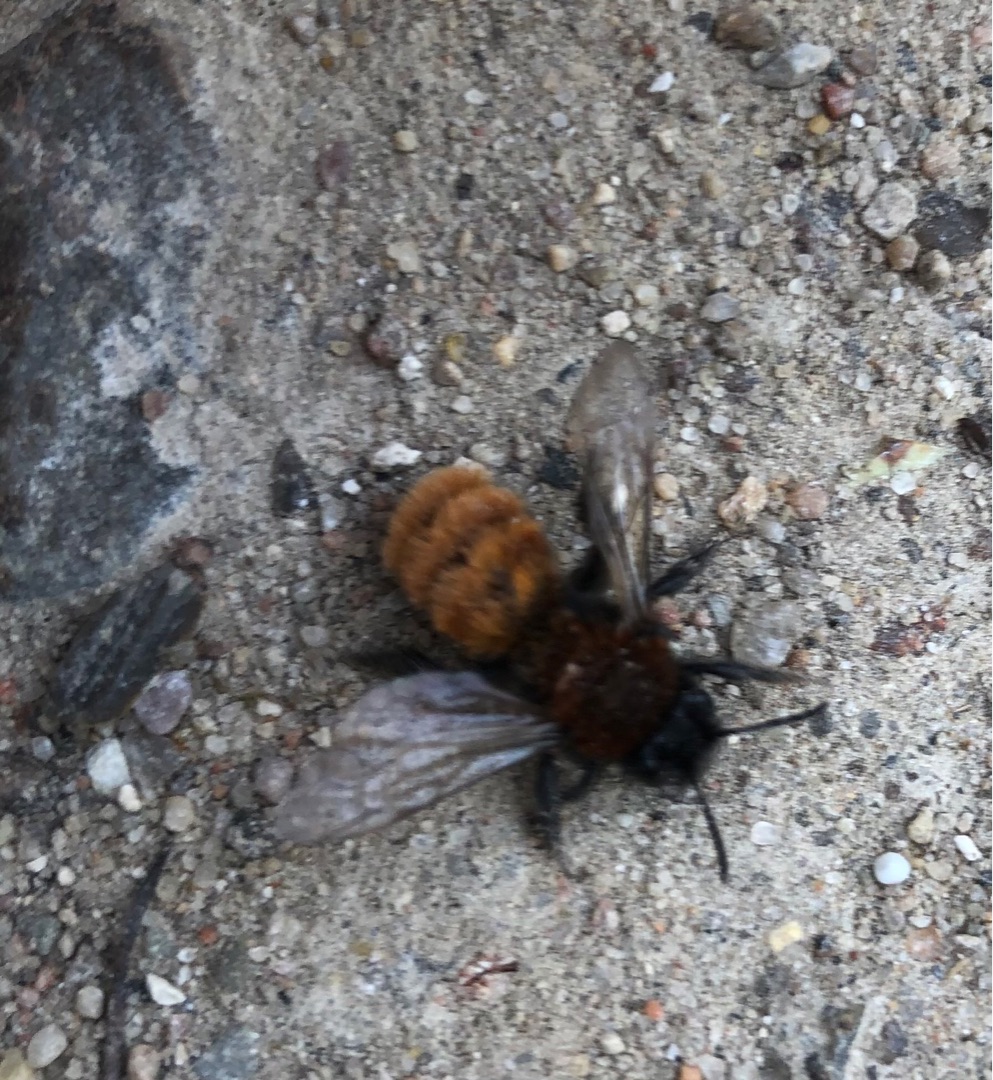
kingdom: Animalia
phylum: Arthropoda
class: Insecta
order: Hymenoptera
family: Andrenidae
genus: Andrena
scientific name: Andrena fulva
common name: Rødpelset jordbi
